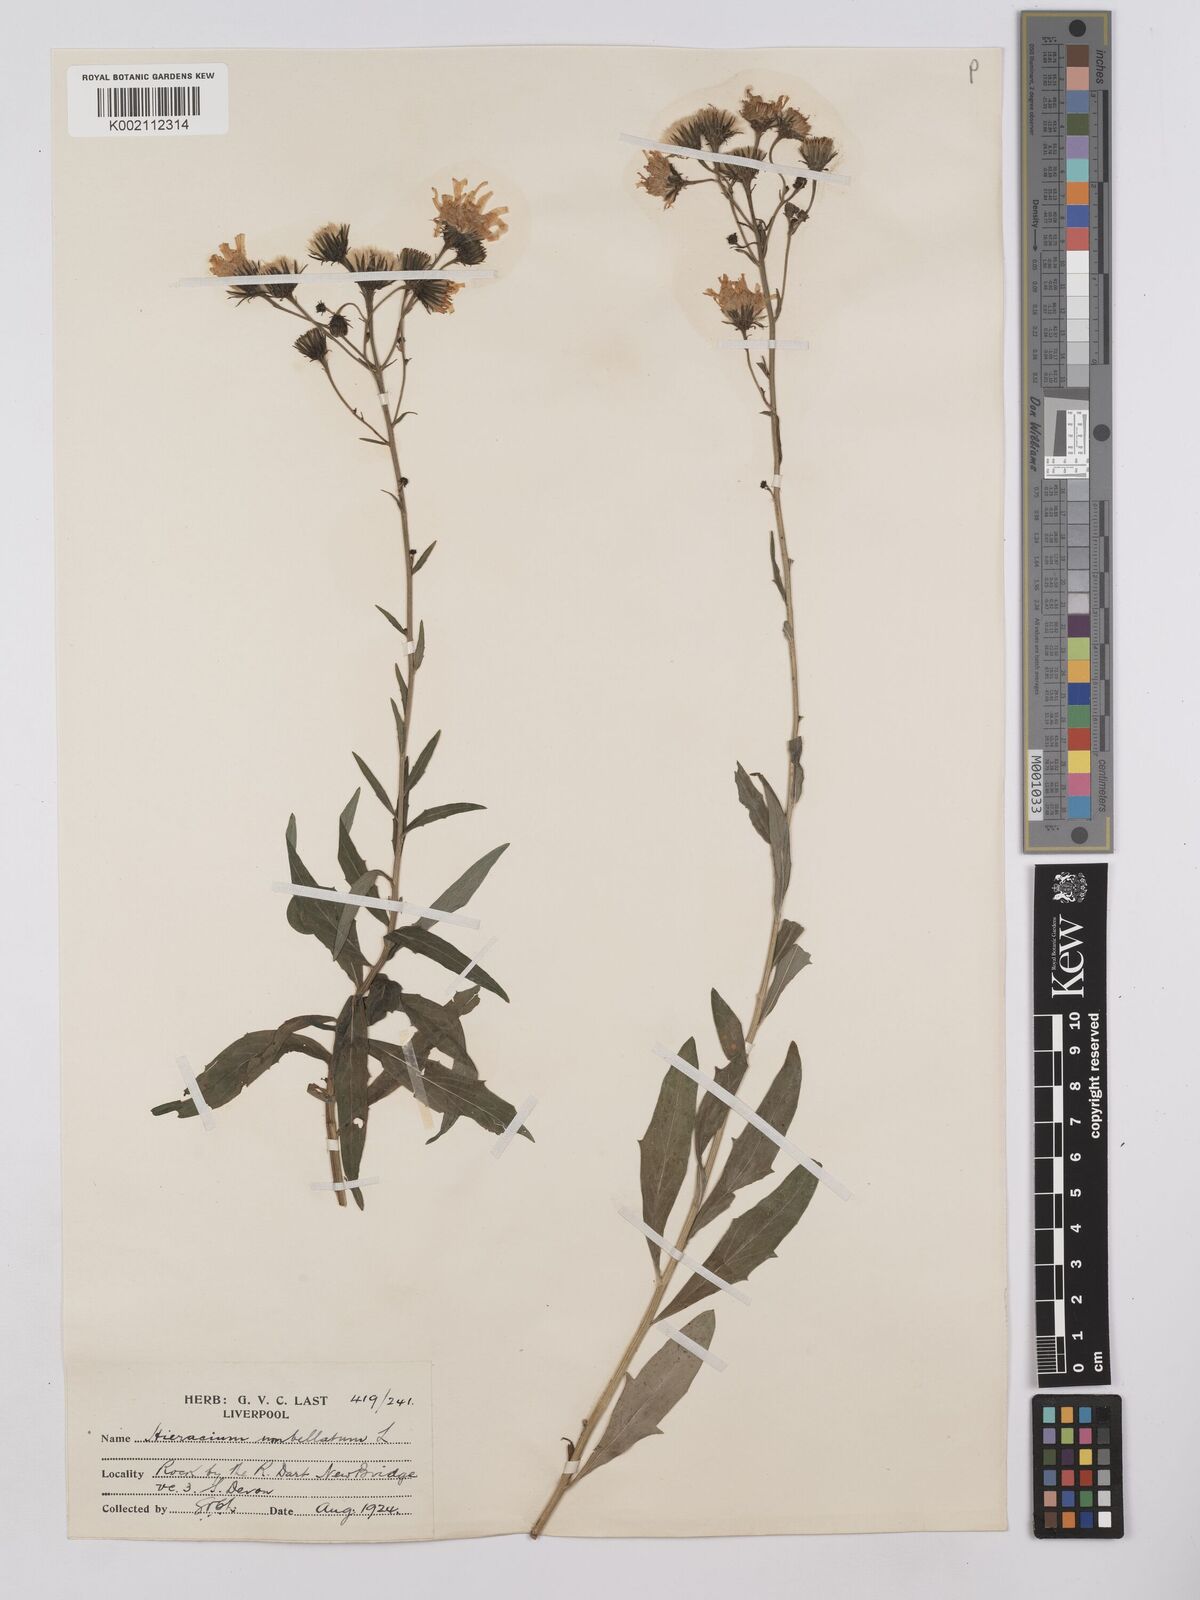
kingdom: Plantae
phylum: Tracheophyta
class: Magnoliopsida
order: Asterales
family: Asteraceae
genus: Hieracium
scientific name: Hieracium umbellatum
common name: Northern hawkweed
